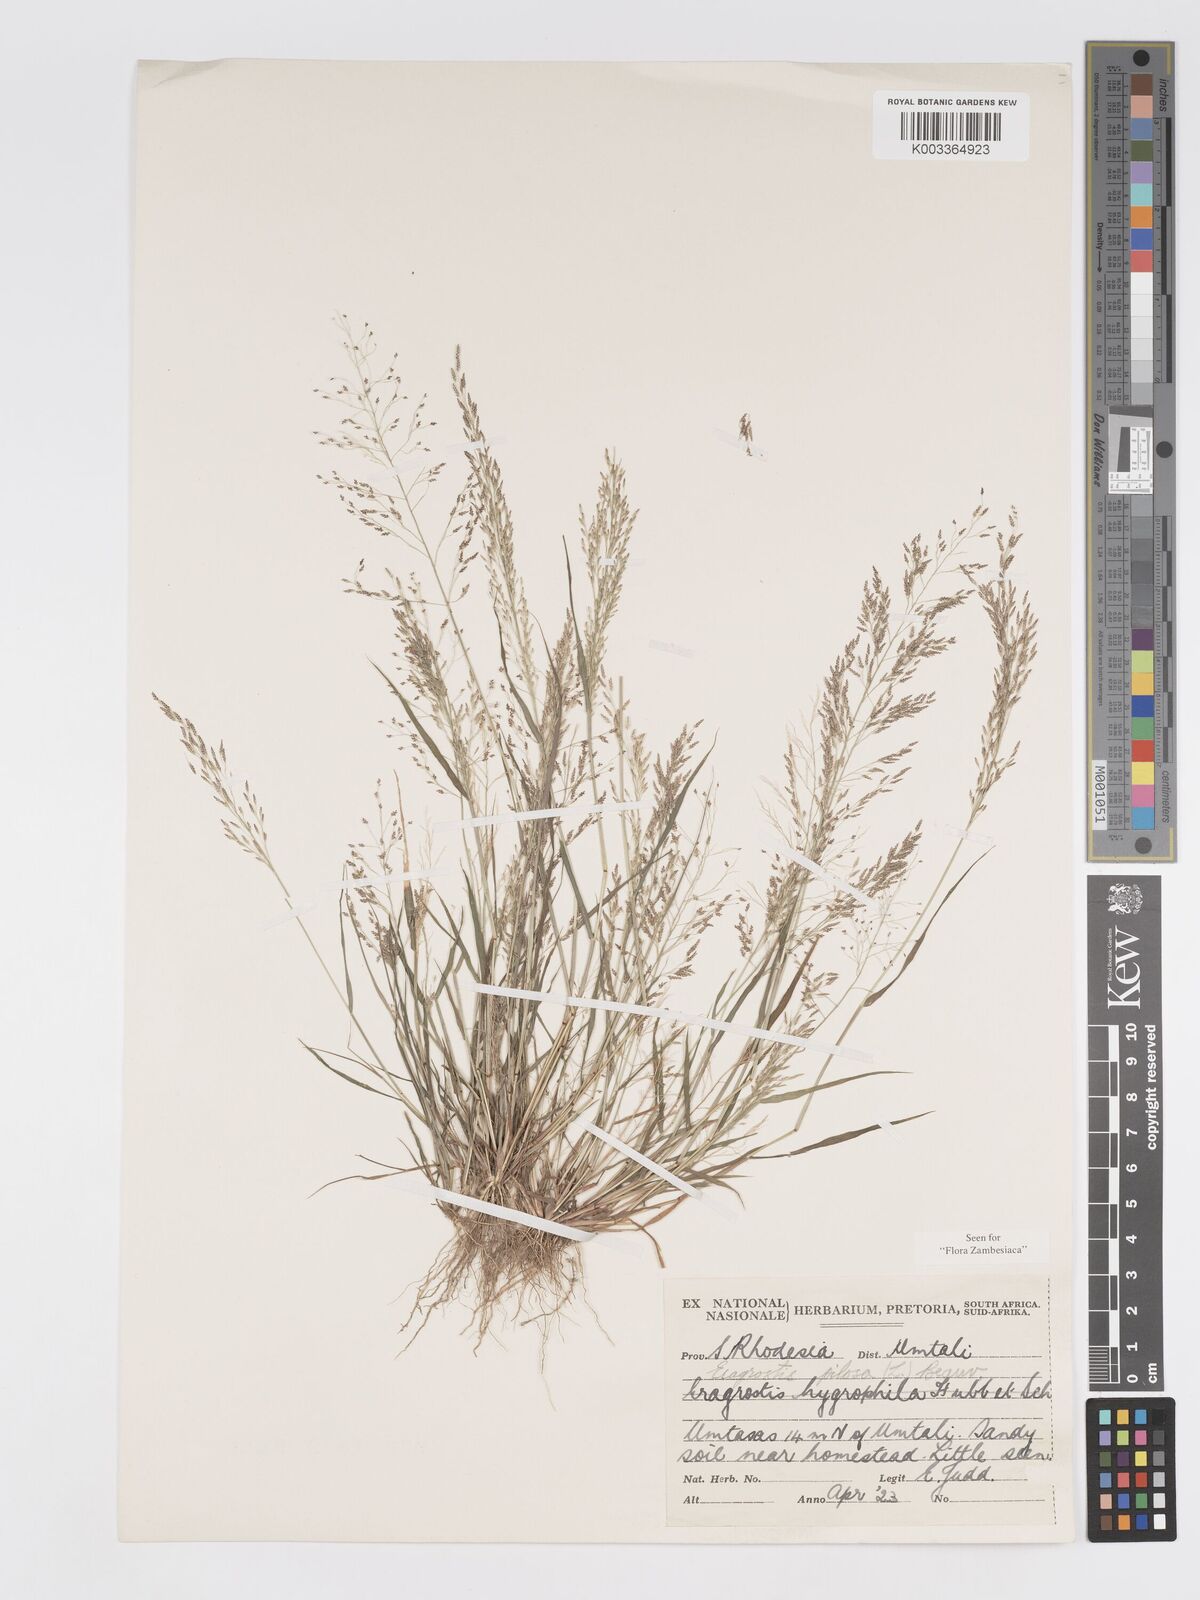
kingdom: Plantae
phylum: Tracheophyta
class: Liliopsida
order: Poales
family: Poaceae
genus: Eragrostis
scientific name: Eragrostis pilosa
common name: Indian lovegrass
